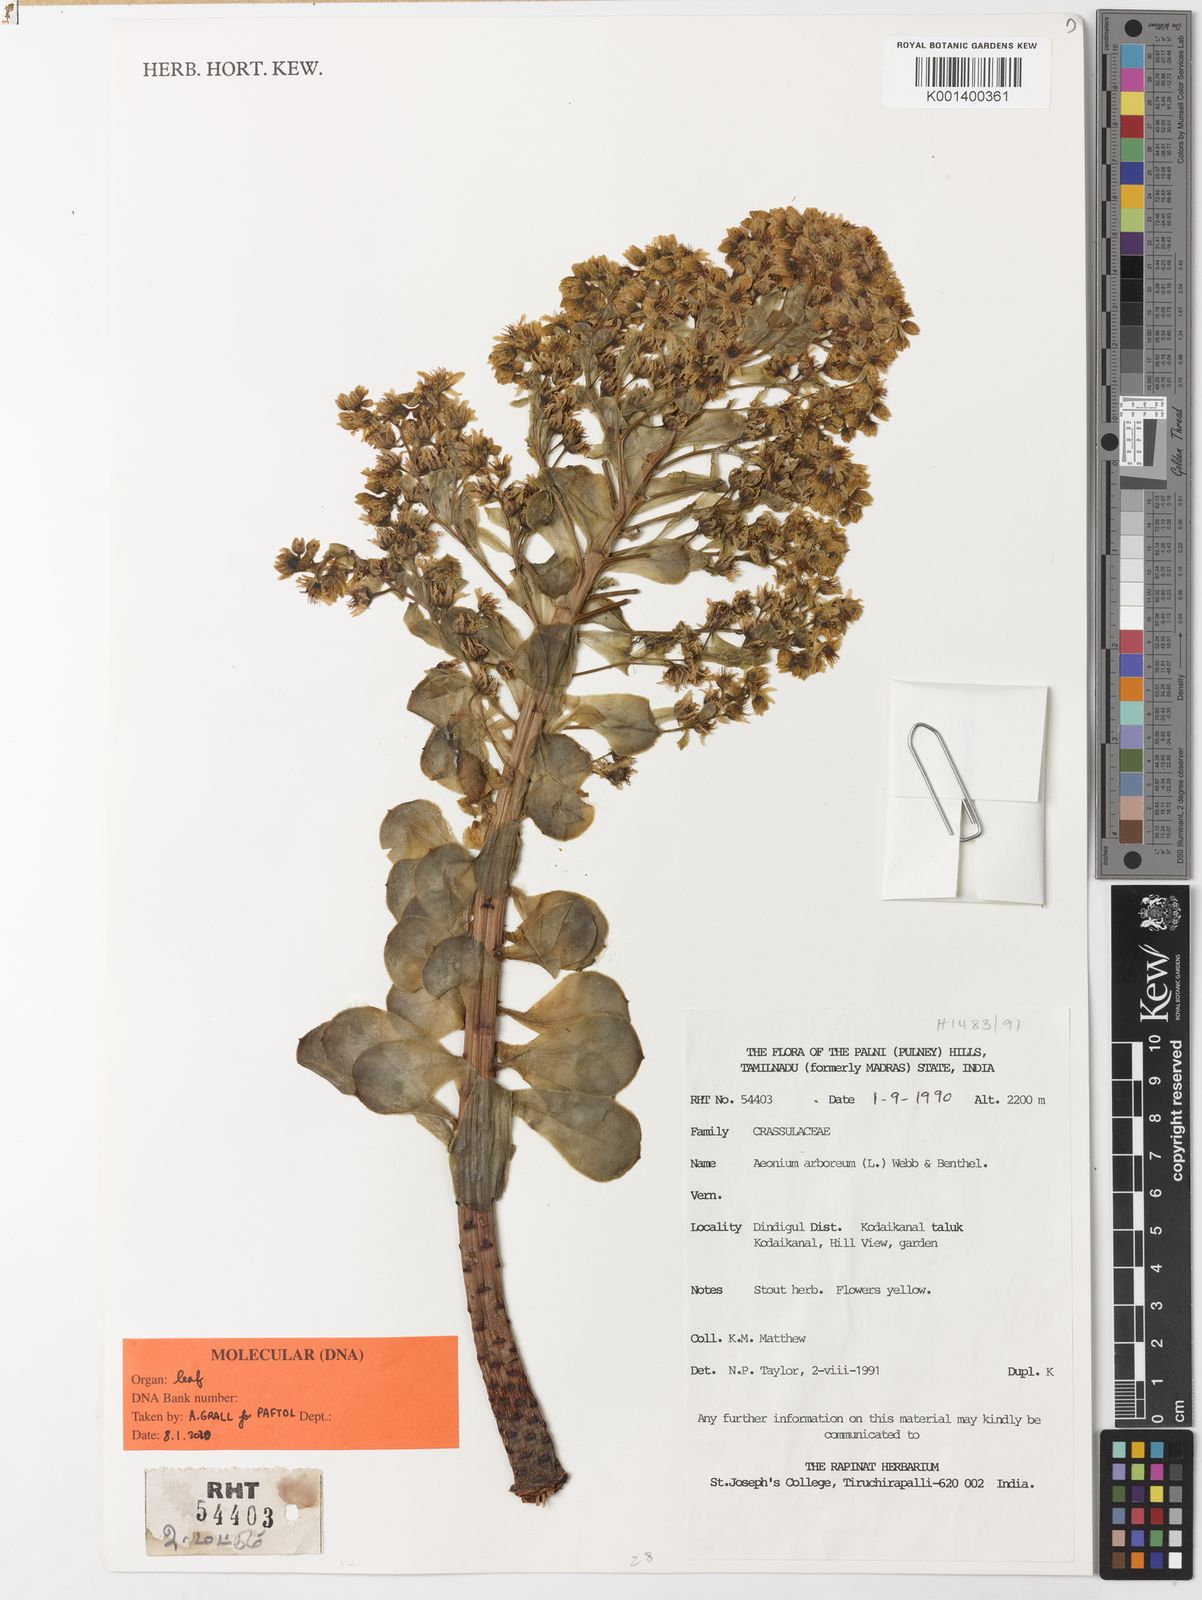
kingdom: Plantae
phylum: Tracheophyta
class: Magnoliopsida
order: Saxifragales
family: Crassulaceae
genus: Aeonium
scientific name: Aeonium
